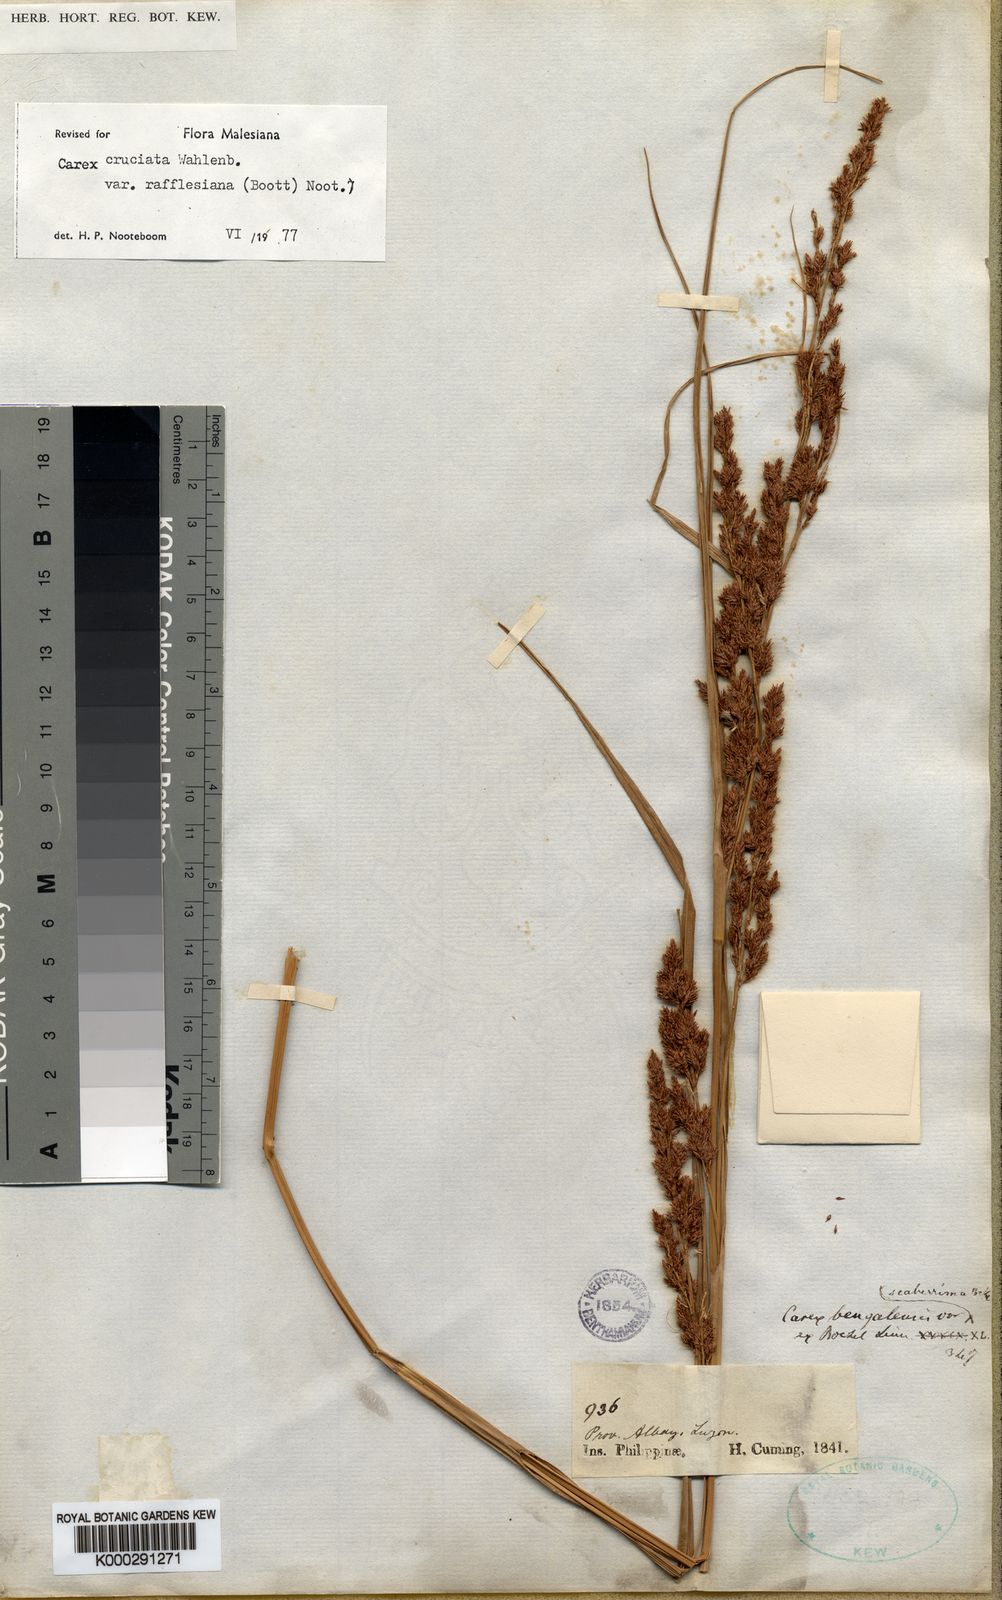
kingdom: Plantae
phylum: Tracheophyta
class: Liliopsida
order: Poales
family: Cyperaceae
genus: Carex
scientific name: Carex rafflesiana
